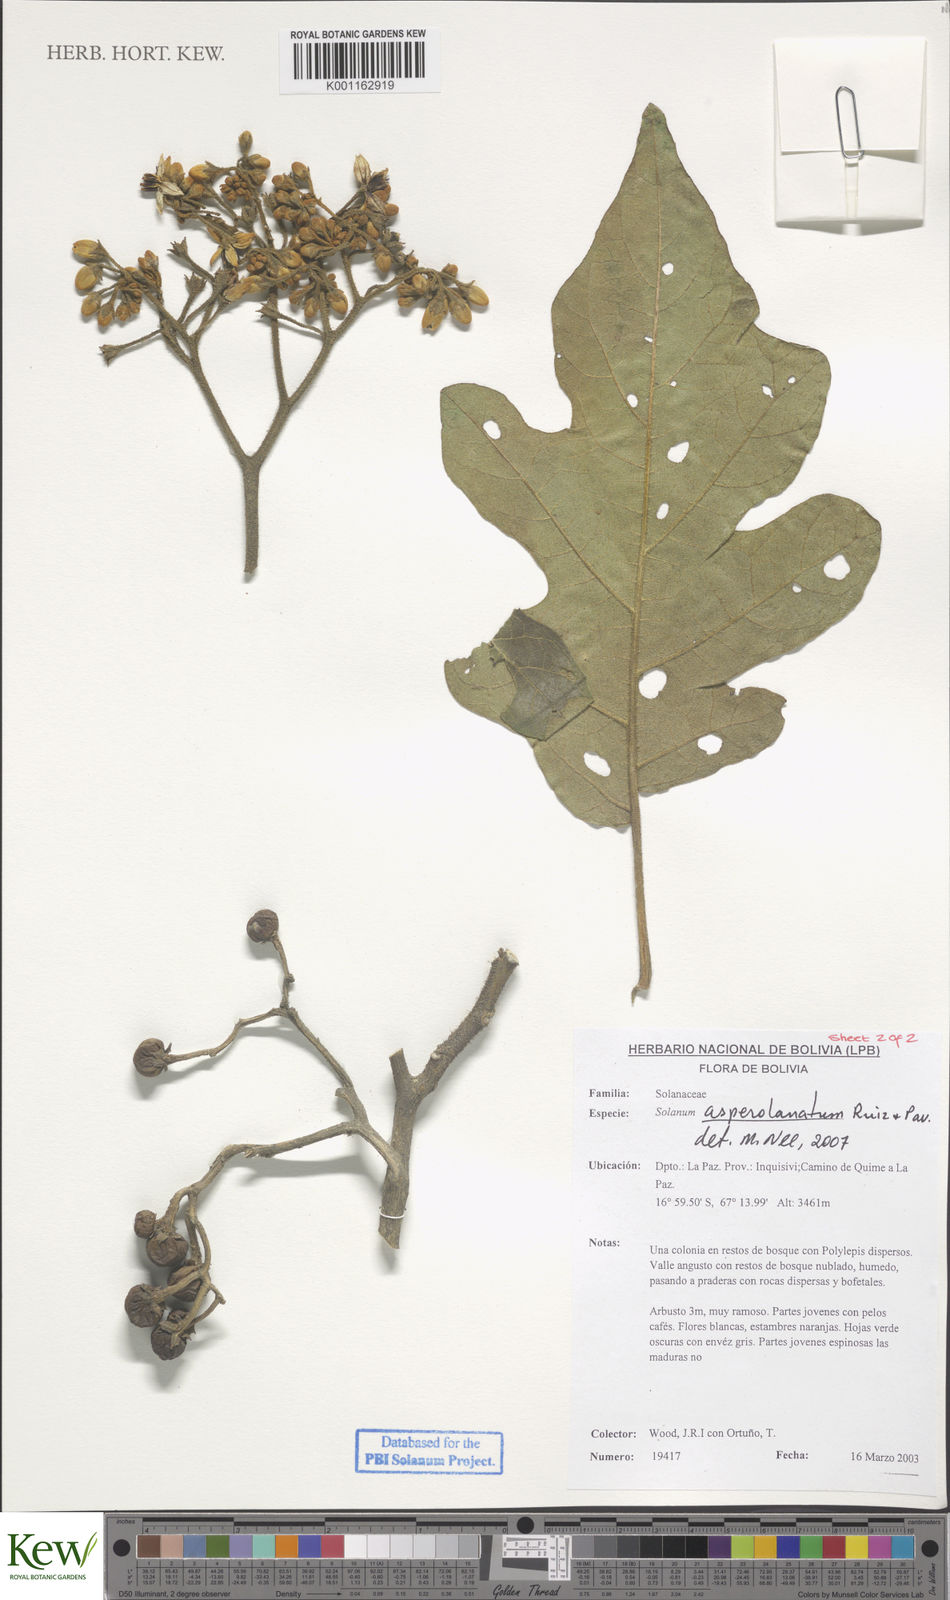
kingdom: Plantae
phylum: Tracheophyta
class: Magnoliopsida
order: Solanales
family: Solanaceae
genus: Solanum
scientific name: Solanum asperolanatum
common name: Devil's-fig
